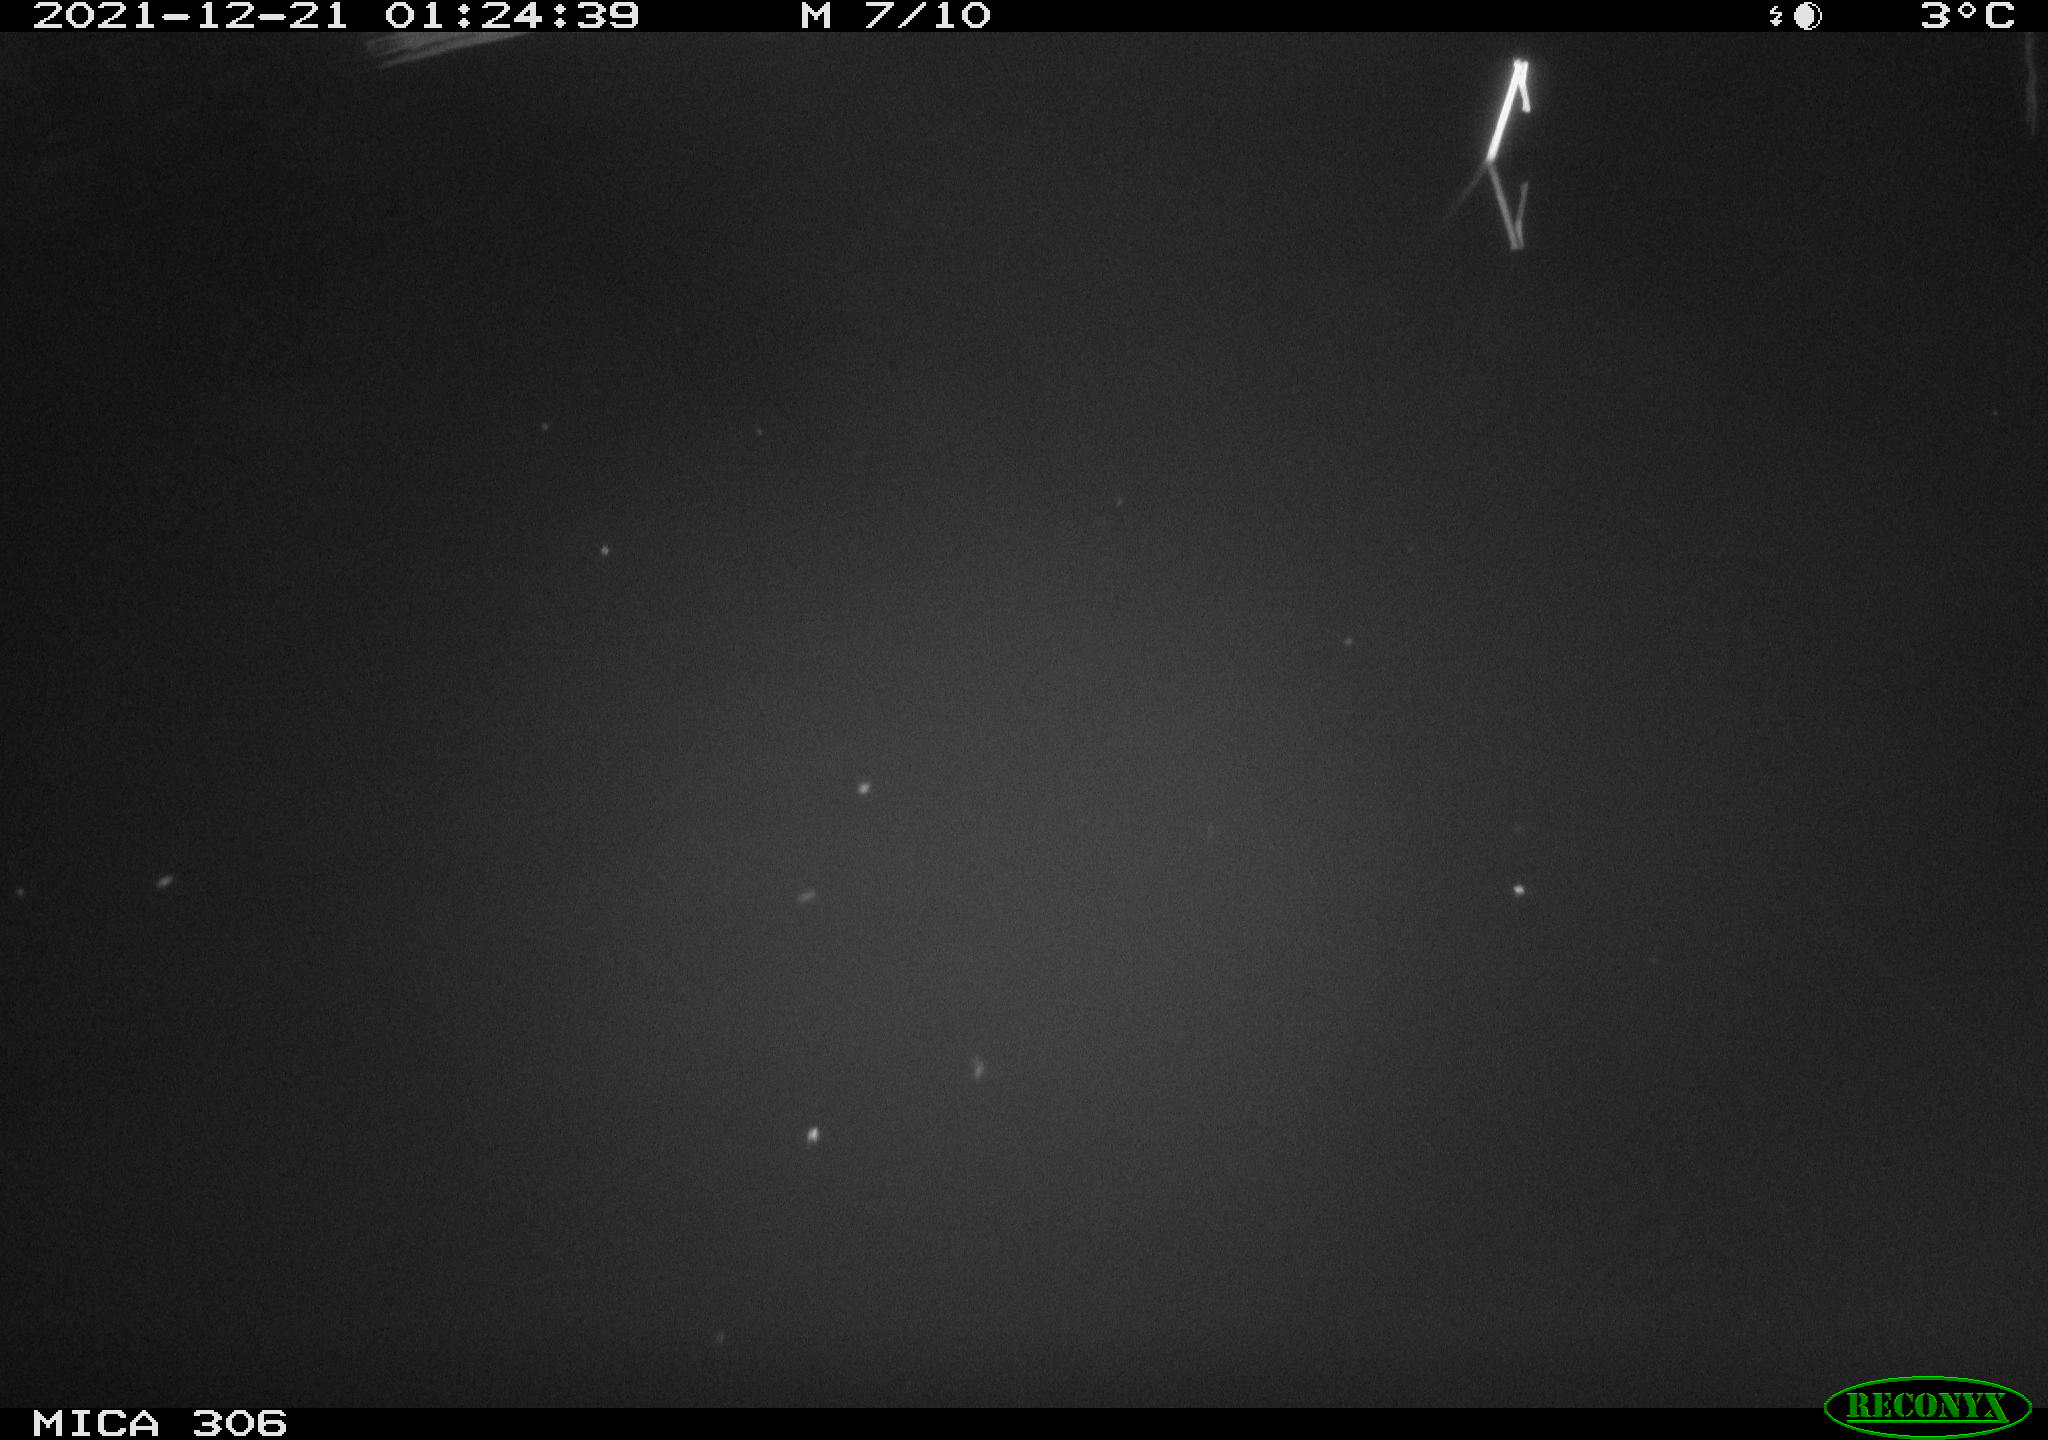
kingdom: Animalia
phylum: Chordata
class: Aves
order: Anseriformes
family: Anatidae
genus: Anas
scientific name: Anas
